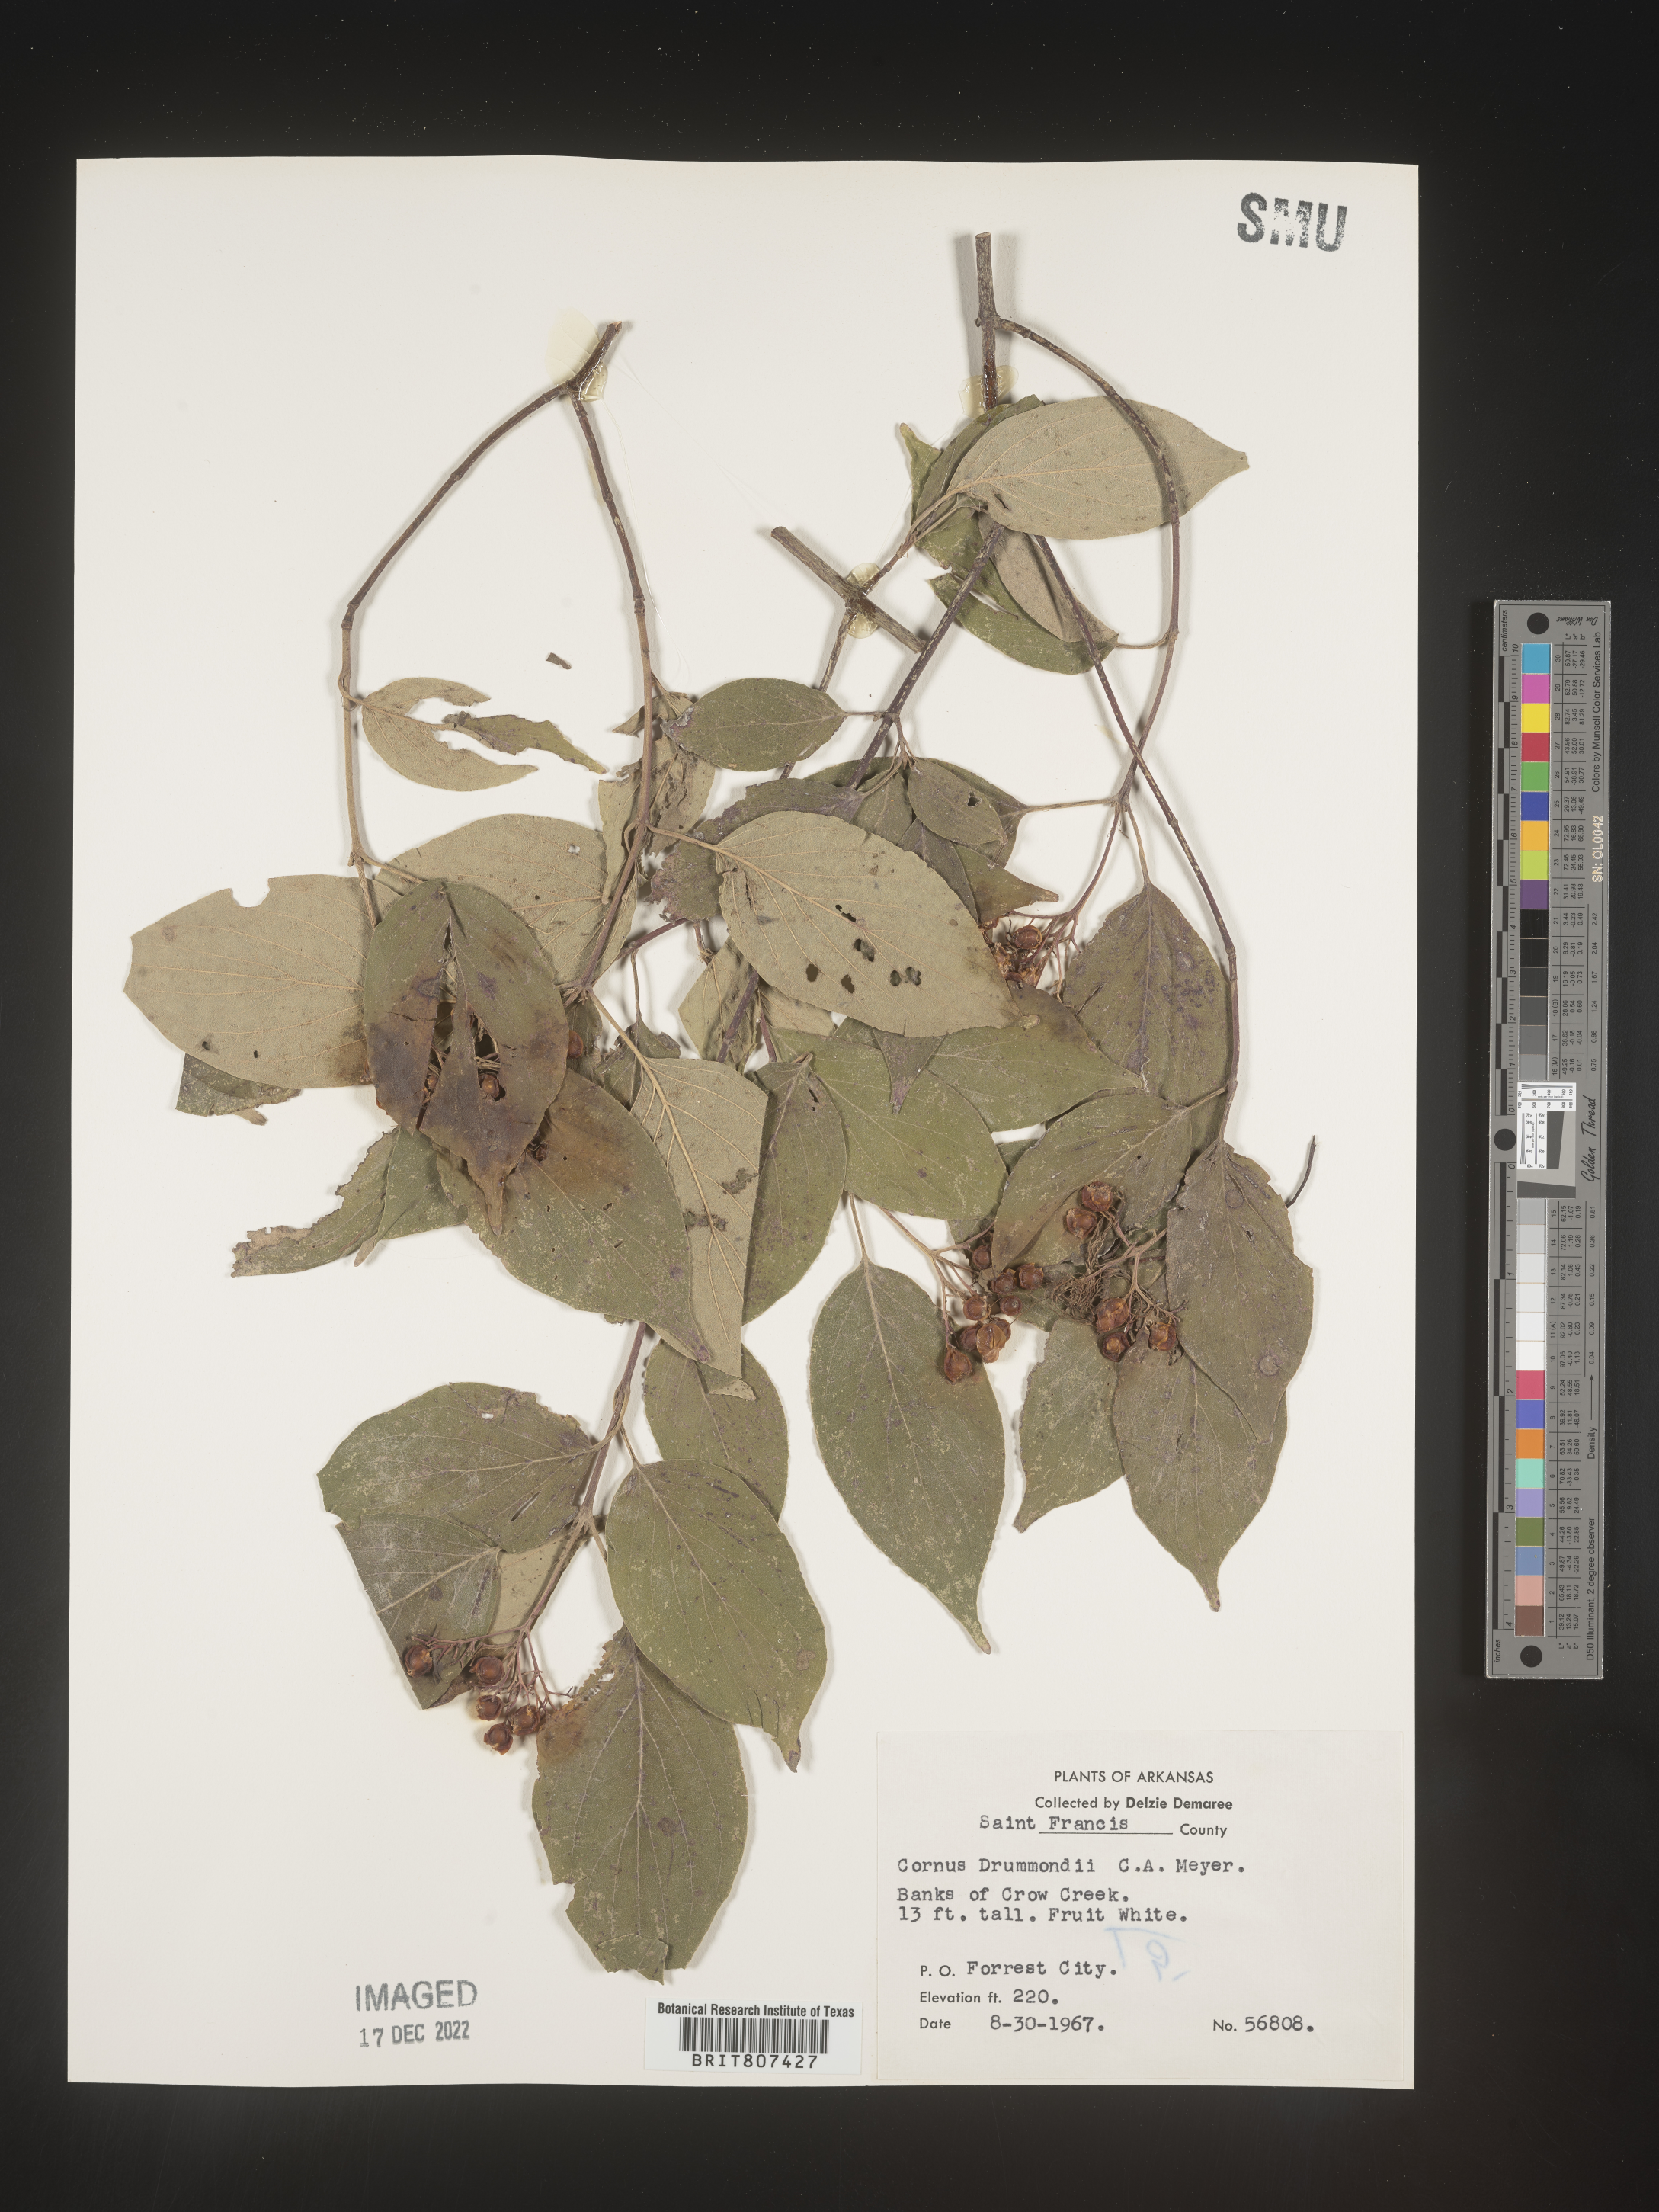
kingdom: Plantae
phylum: Tracheophyta
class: Magnoliopsida
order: Cornales
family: Cornaceae
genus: Cornus
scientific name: Cornus drummondii
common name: Rough-leaf dogwood
